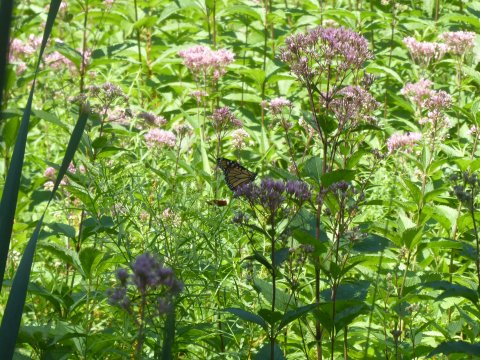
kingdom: Animalia
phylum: Arthropoda
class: Insecta
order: Lepidoptera
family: Nymphalidae
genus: Danaus
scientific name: Danaus plexippus
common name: Monarch
